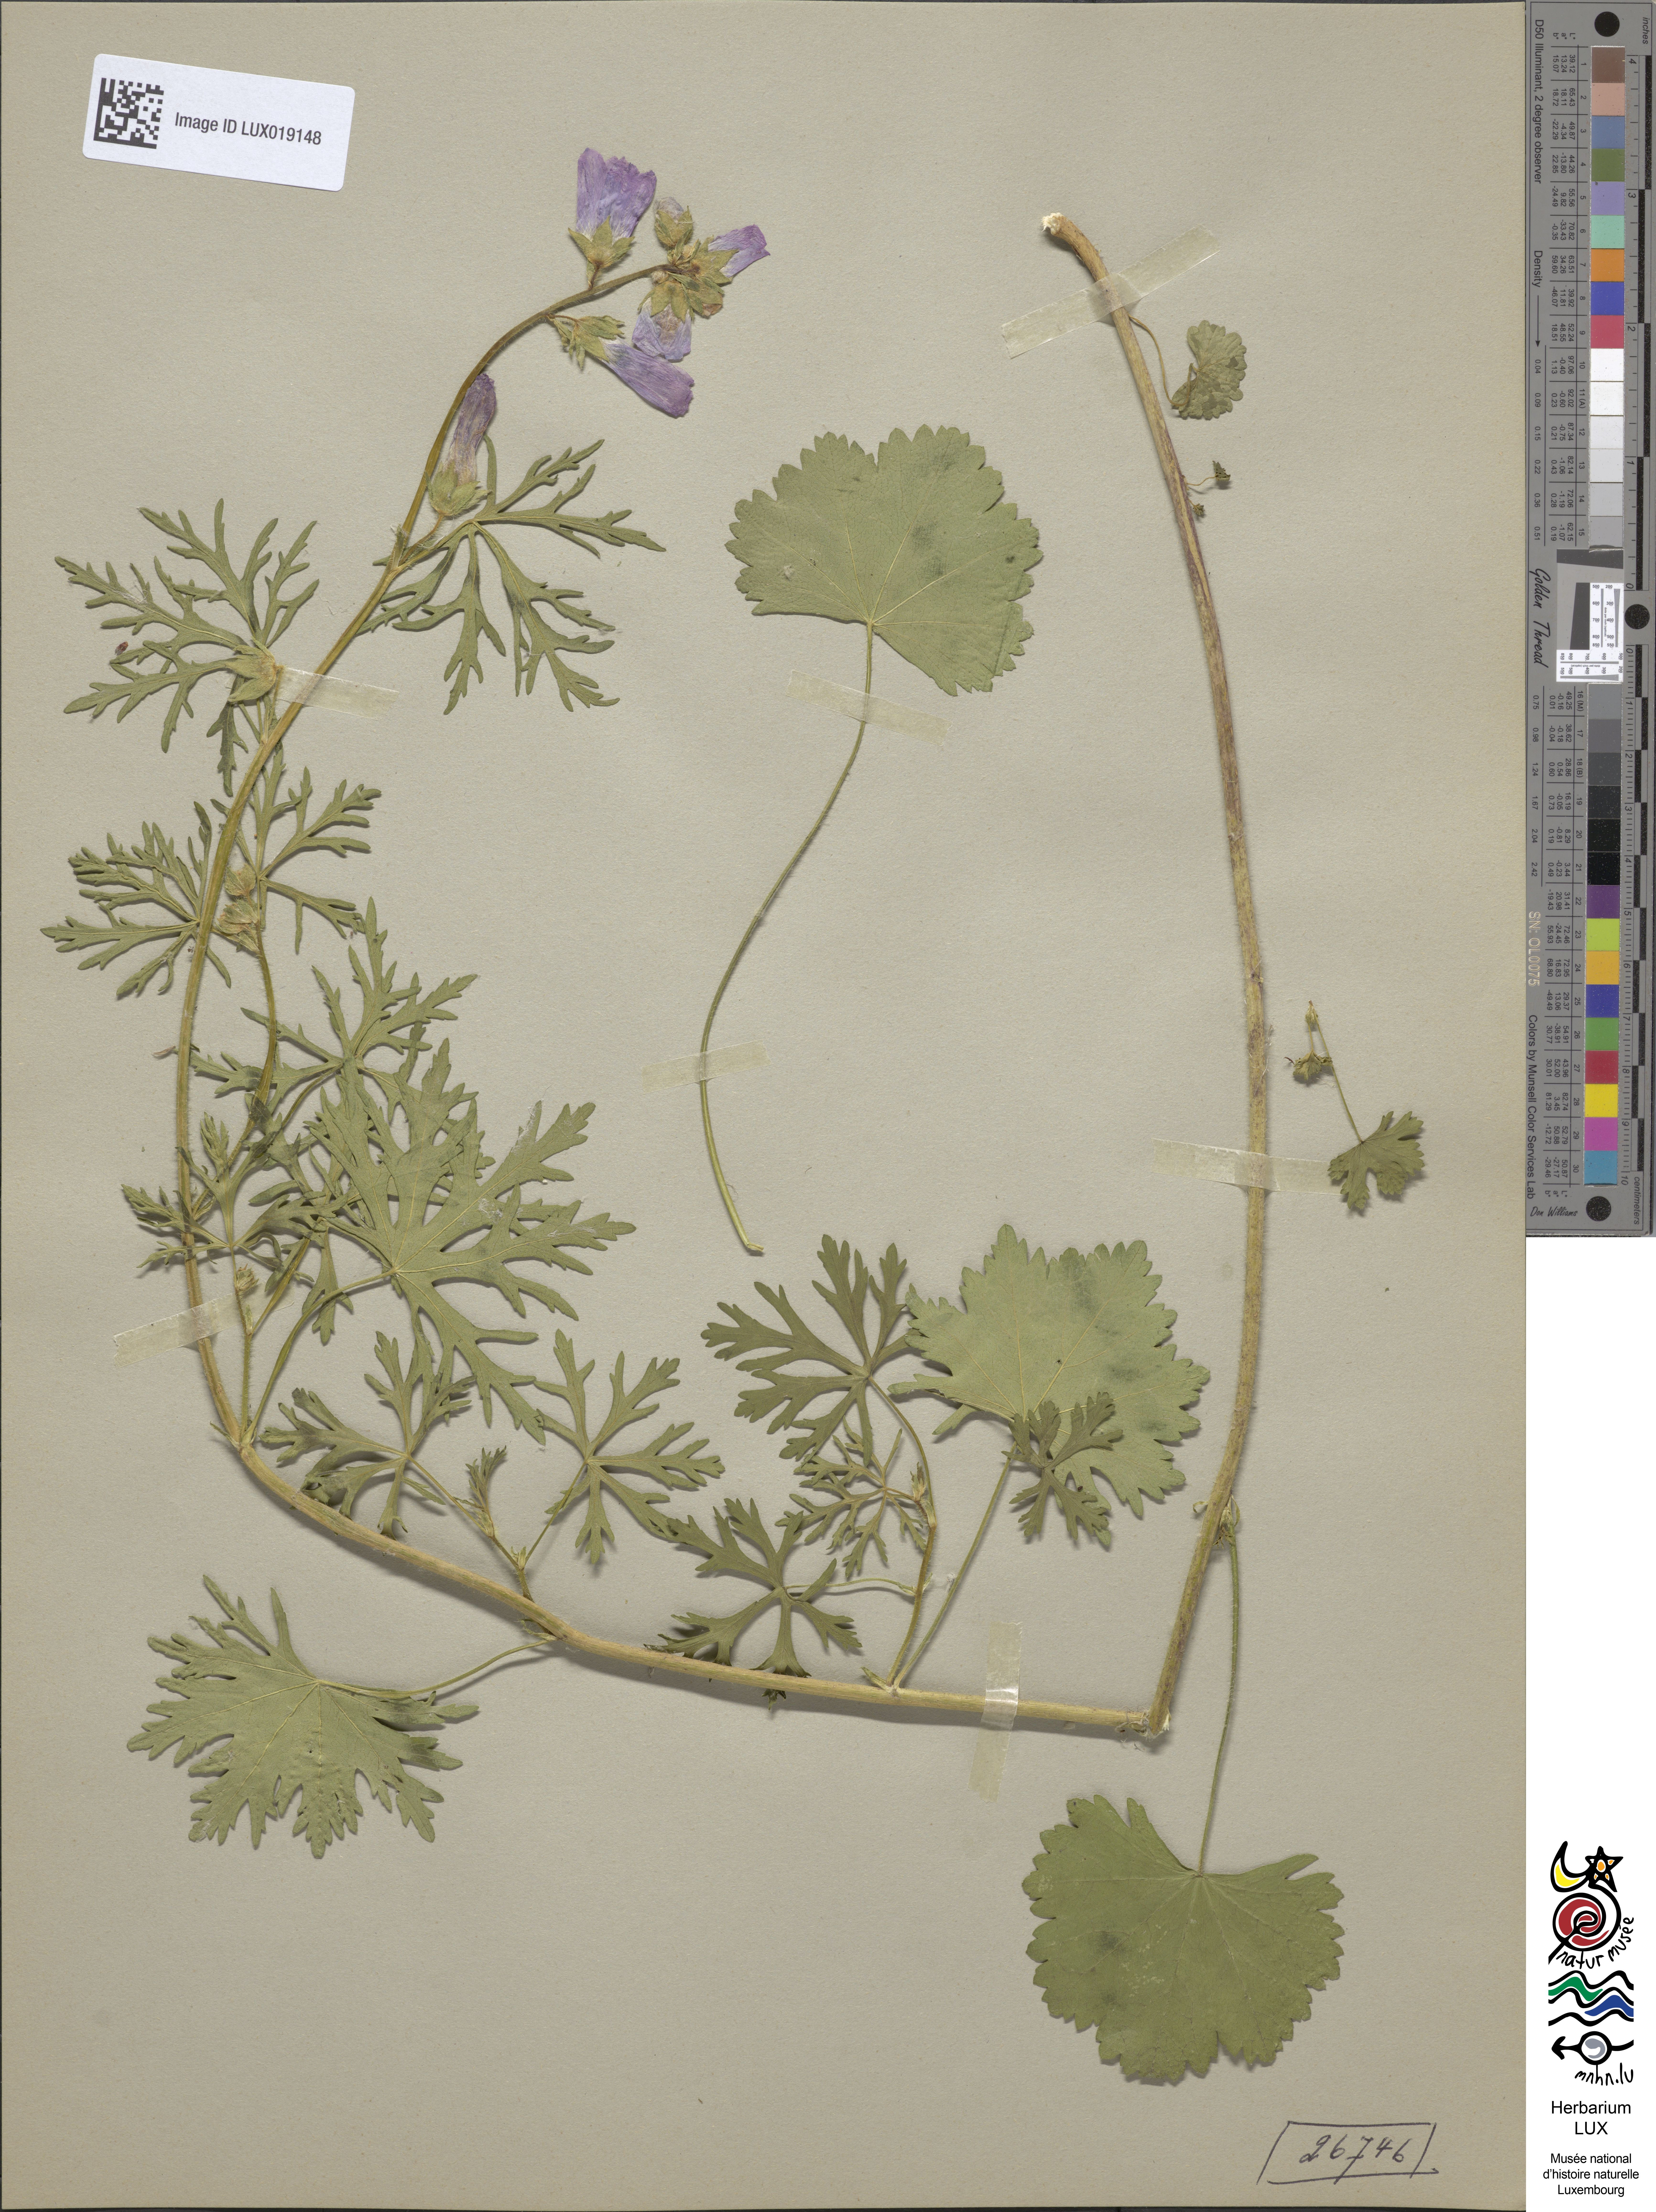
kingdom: Plantae
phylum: Tracheophyta
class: Magnoliopsida
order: Malvales
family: Malvaceae
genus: Malva
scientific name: Malva moschata
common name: Musk mallow
